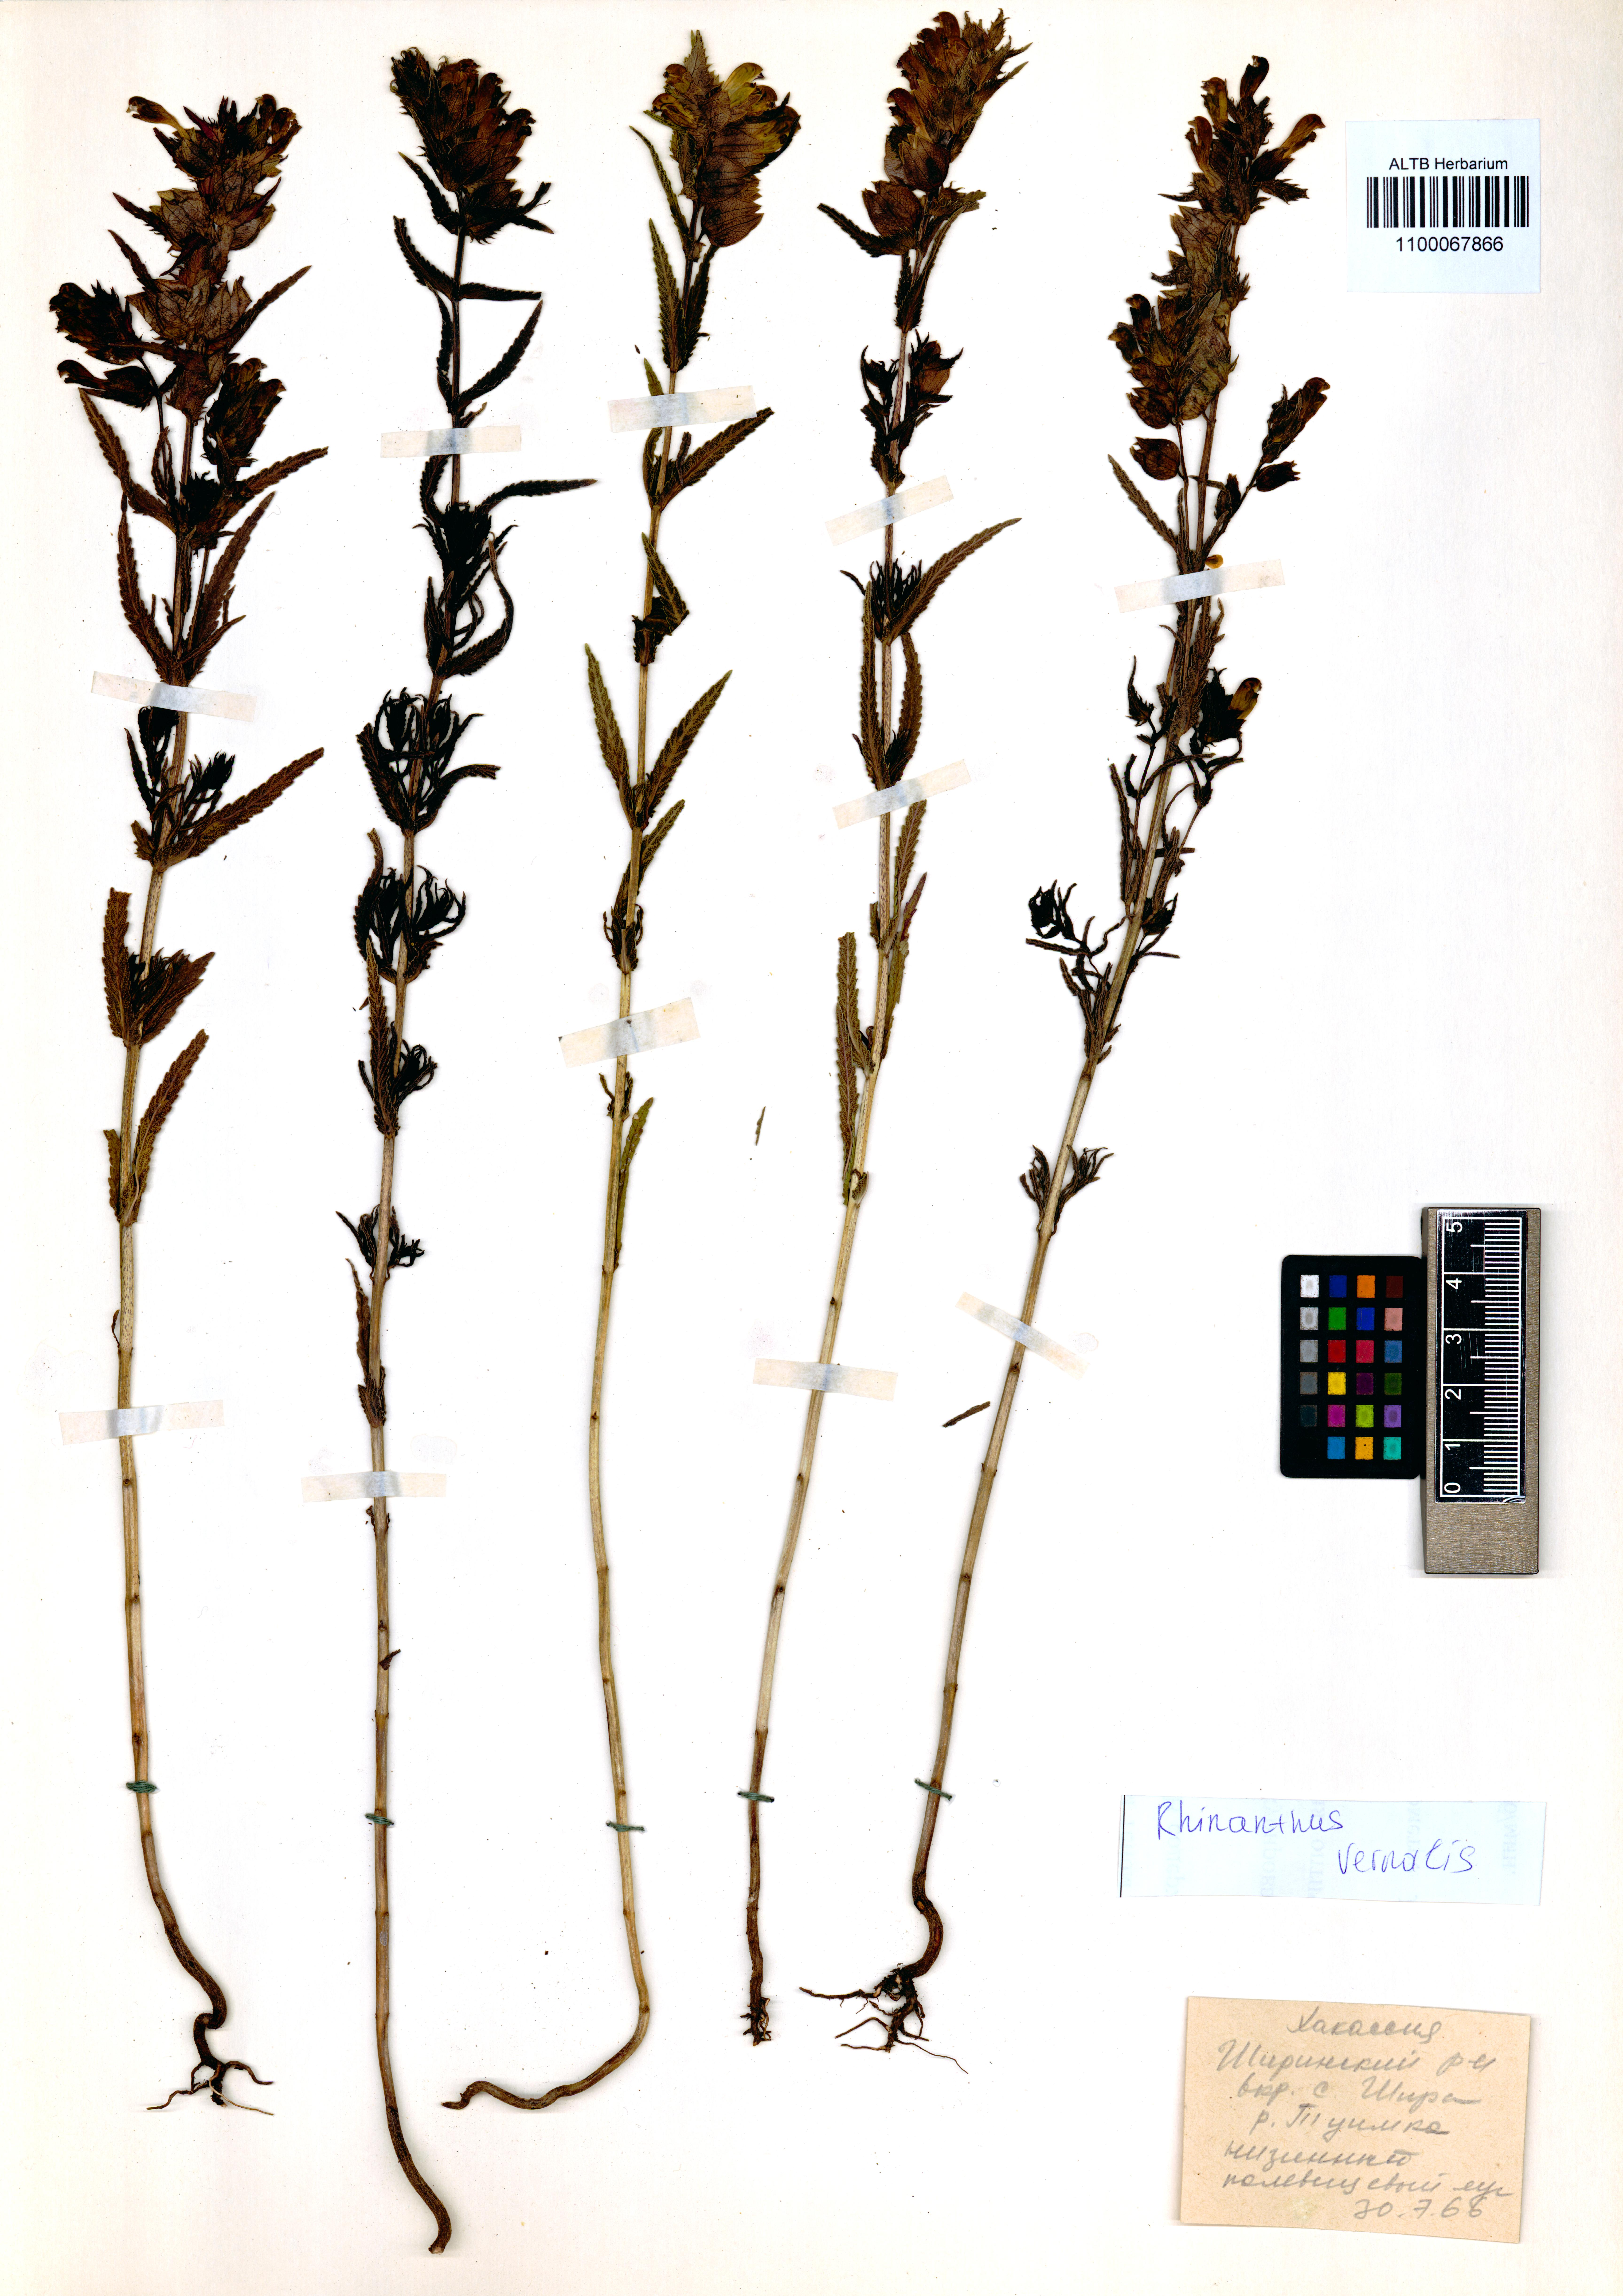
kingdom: Plantae
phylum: Tracheophyta
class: Magnoliopsida
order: Lamiales
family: Orobanchaceae
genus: Rhinanthus
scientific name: Rhinanthus serotinus
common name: Late-flowering yellow rattle
